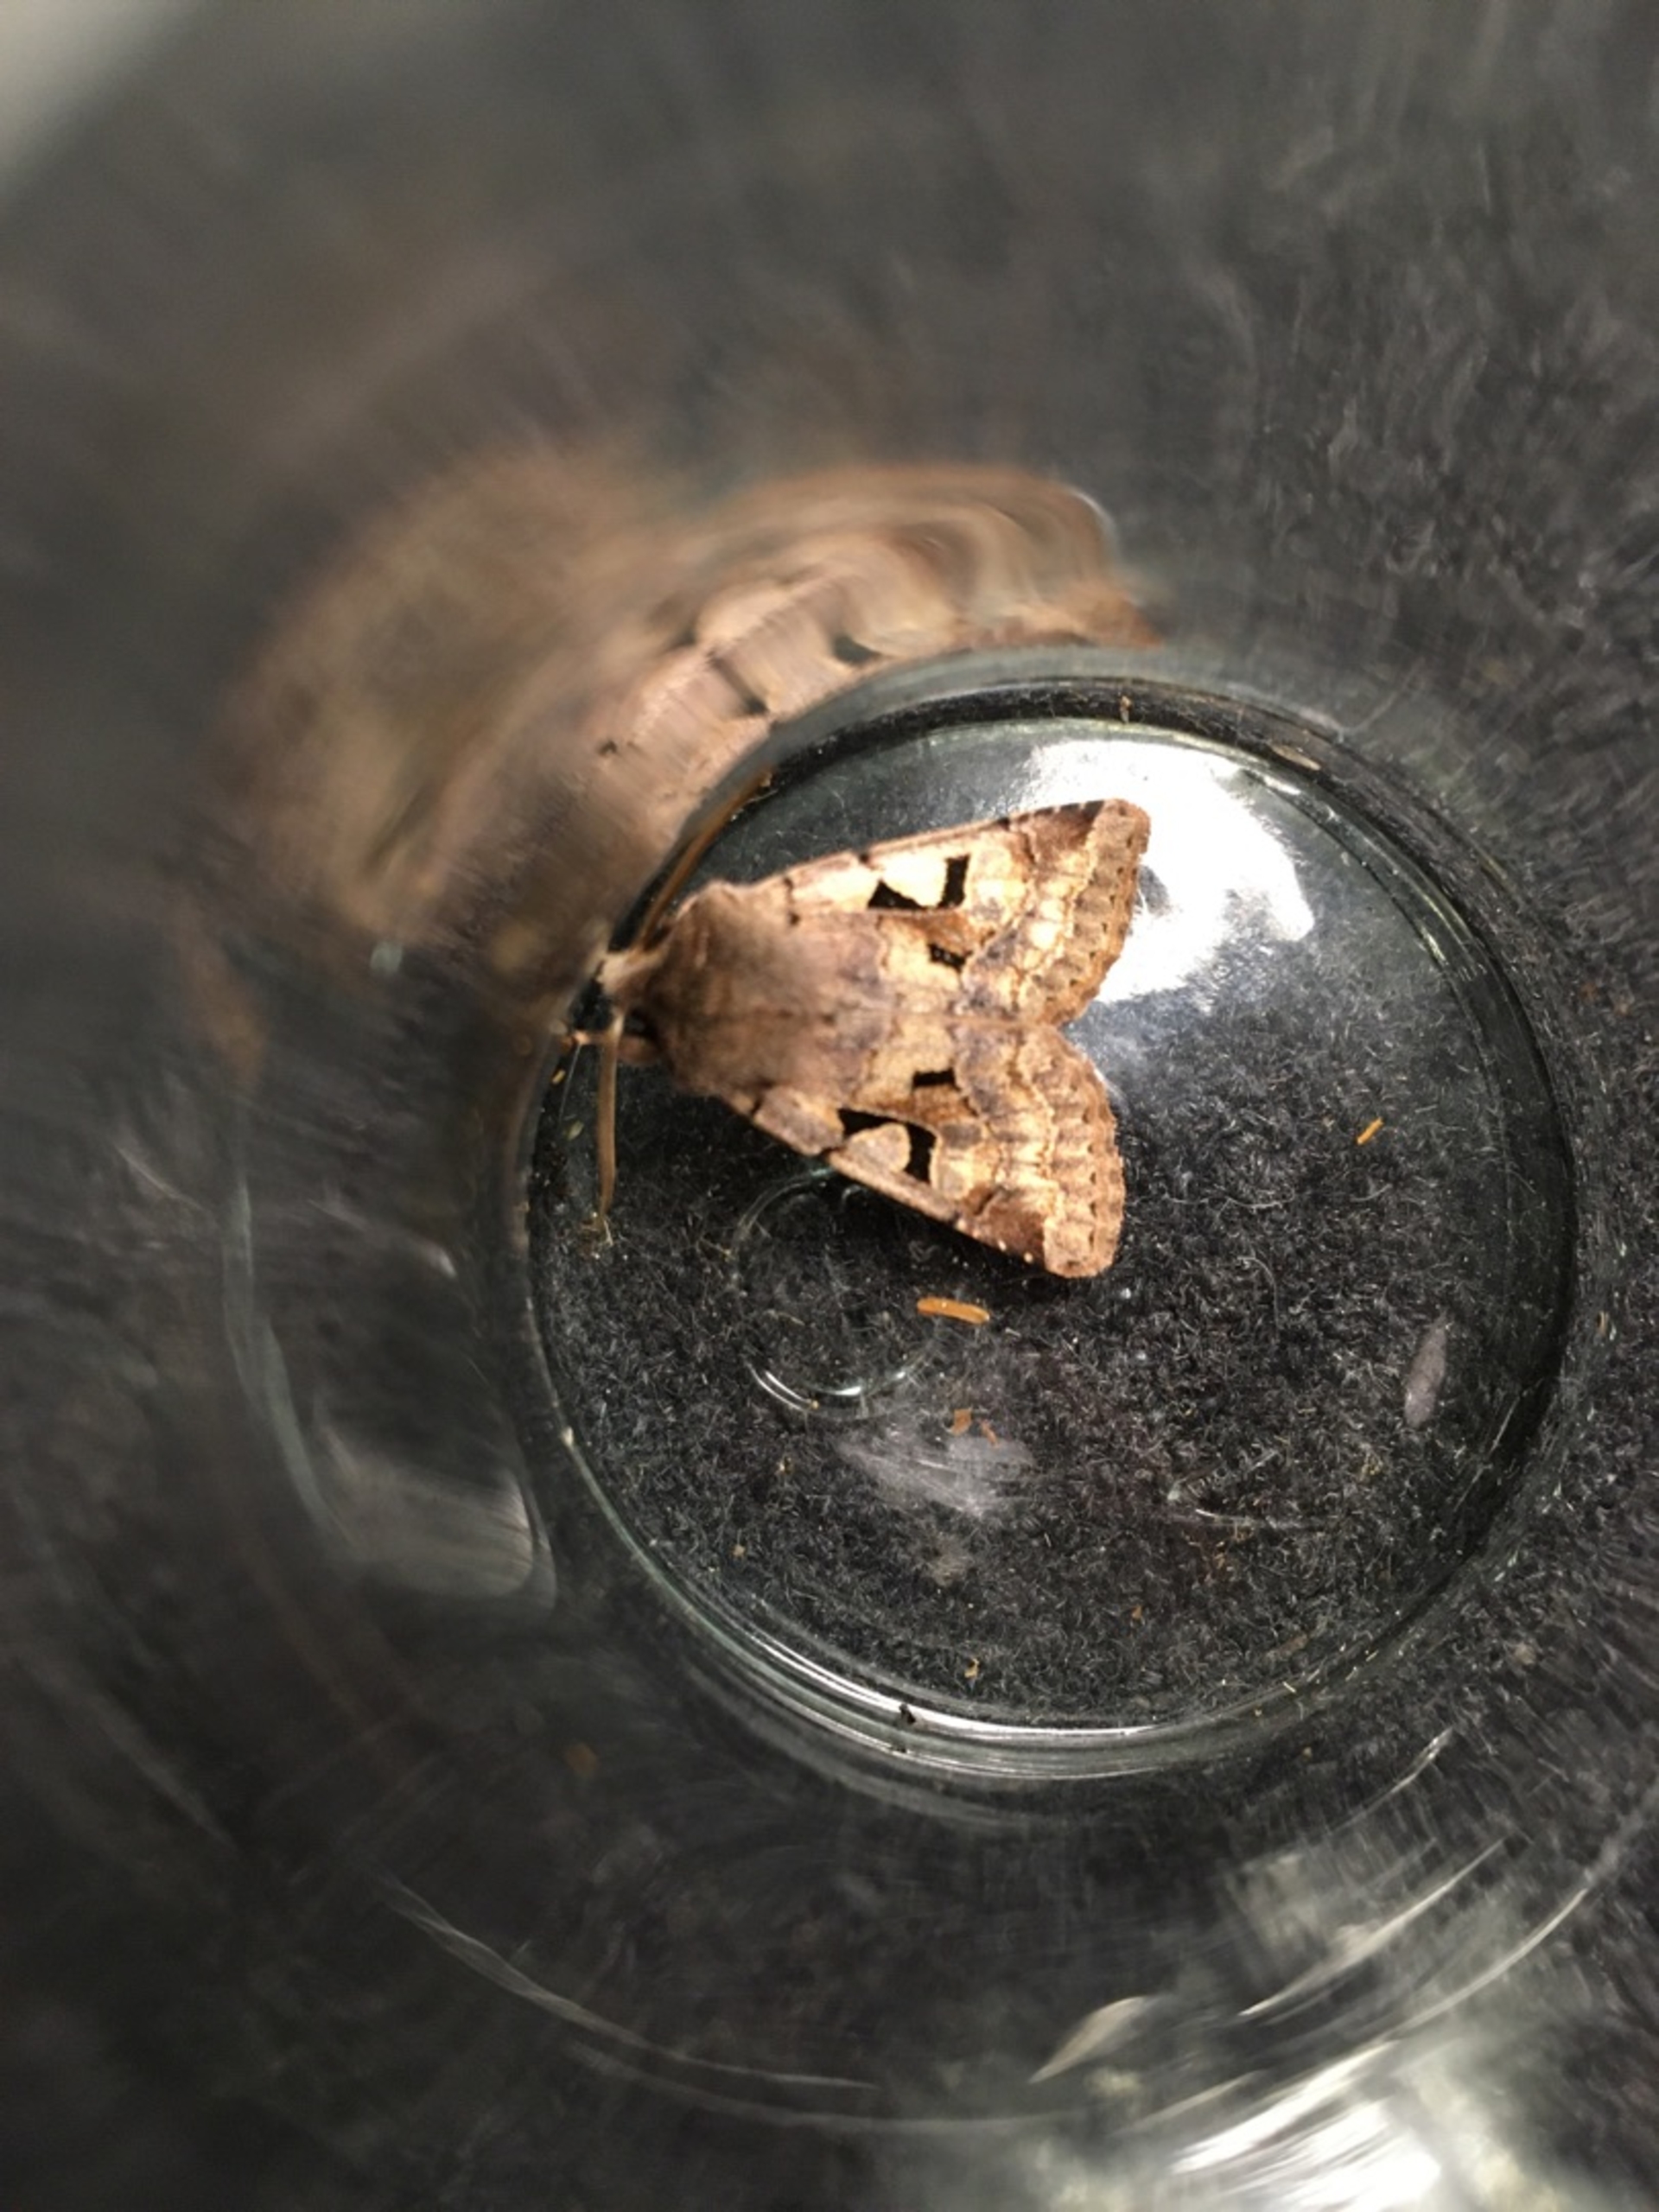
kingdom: Animalia
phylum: Arthropoda
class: Insecta
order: Lepidoptera
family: Noctuidae
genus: Orthosia
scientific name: Orthosia gothica
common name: Gotisk forårsugle
